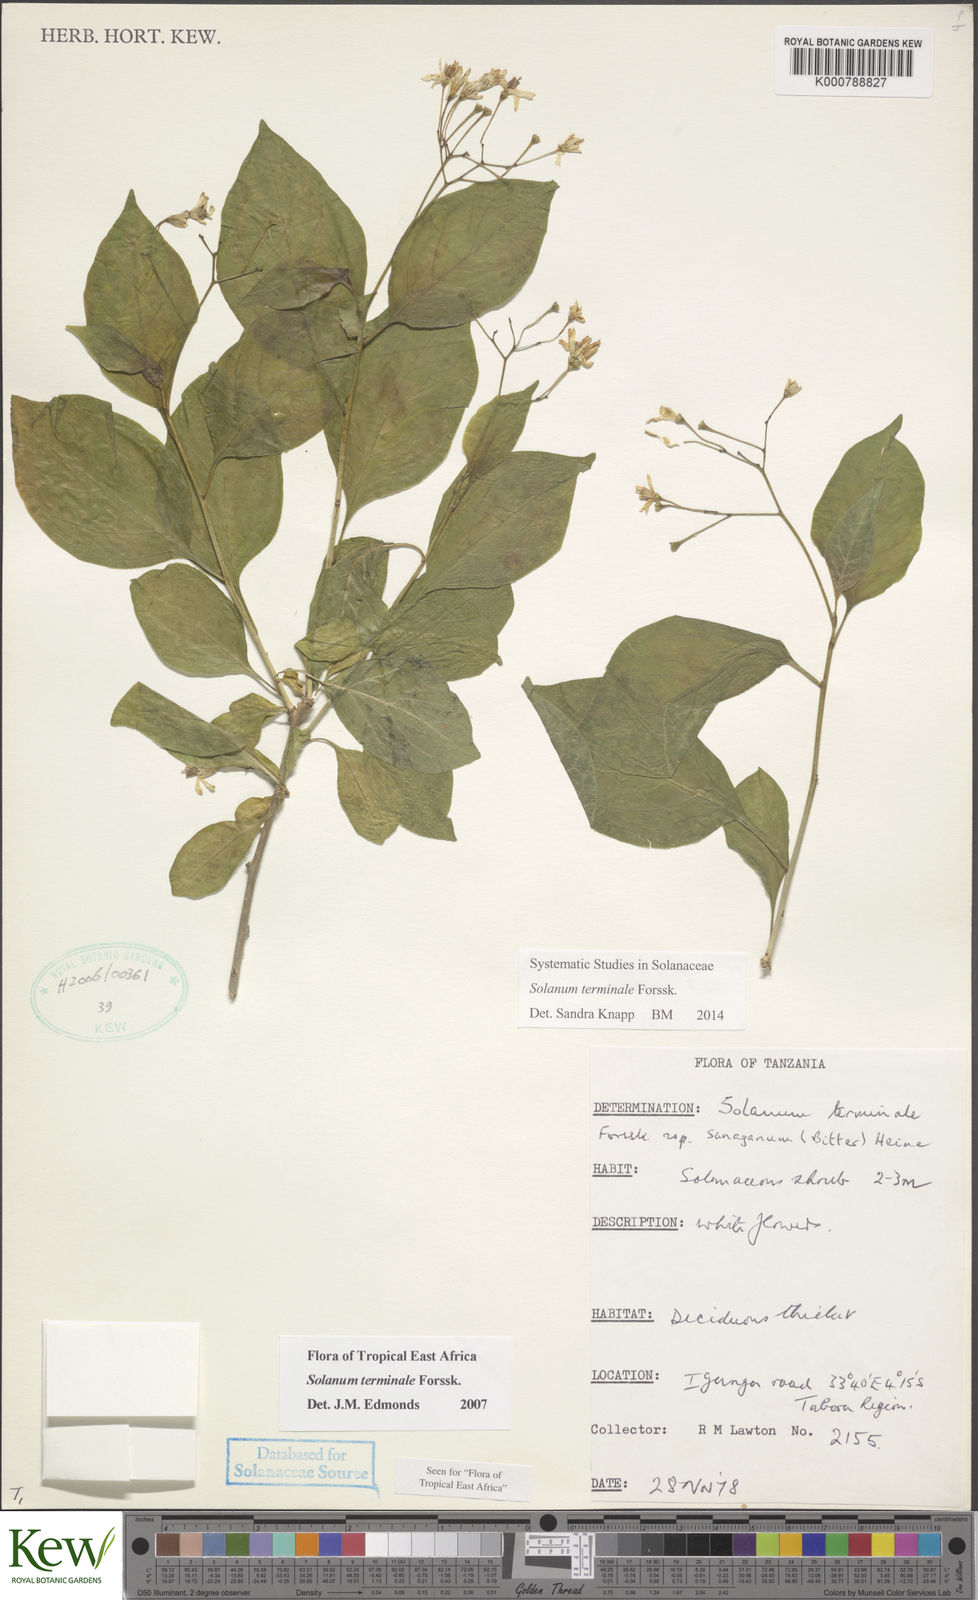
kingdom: Plantae
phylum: Tracheophyta
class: Magnoliopsida
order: Solanales
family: Solanaceae
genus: Solanum
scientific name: Solanum terminale
